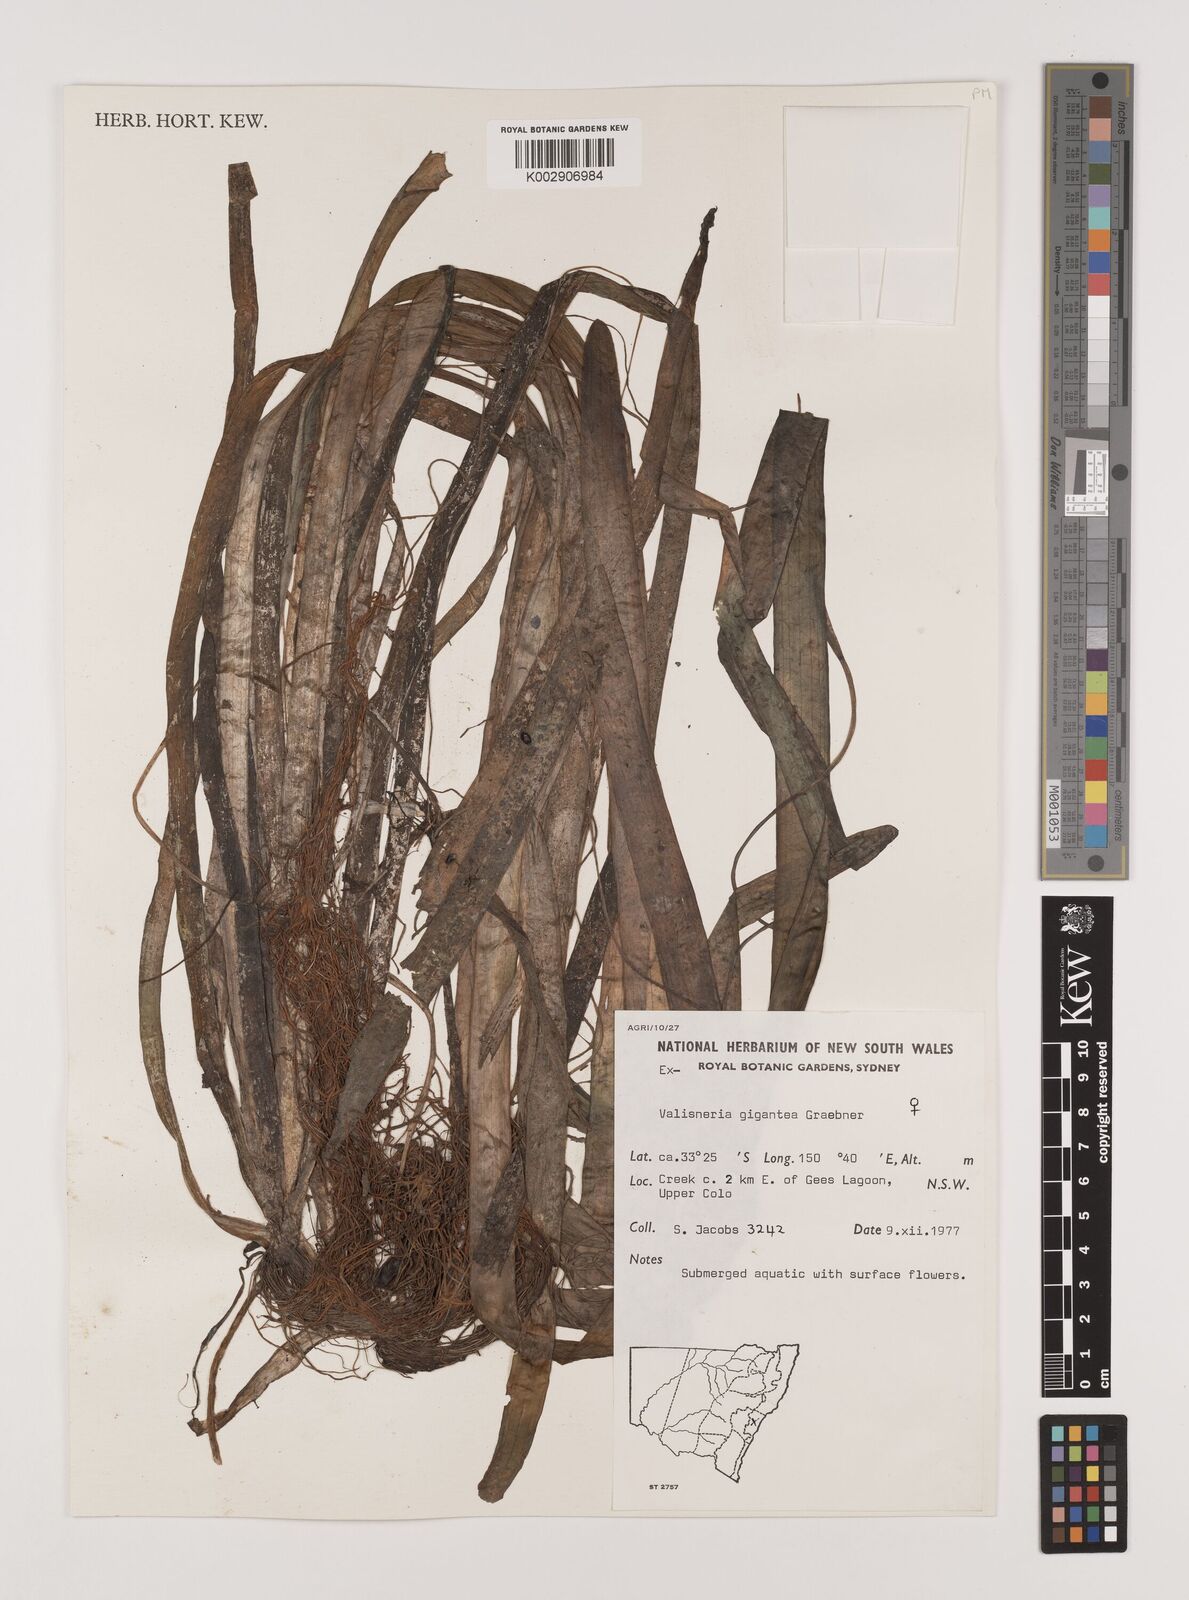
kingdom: Plantae
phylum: Tracheophyta
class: Liliopsida
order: Alismatales
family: Hydrocharitaceae
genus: Vallisneria
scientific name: Vallisneria nana
